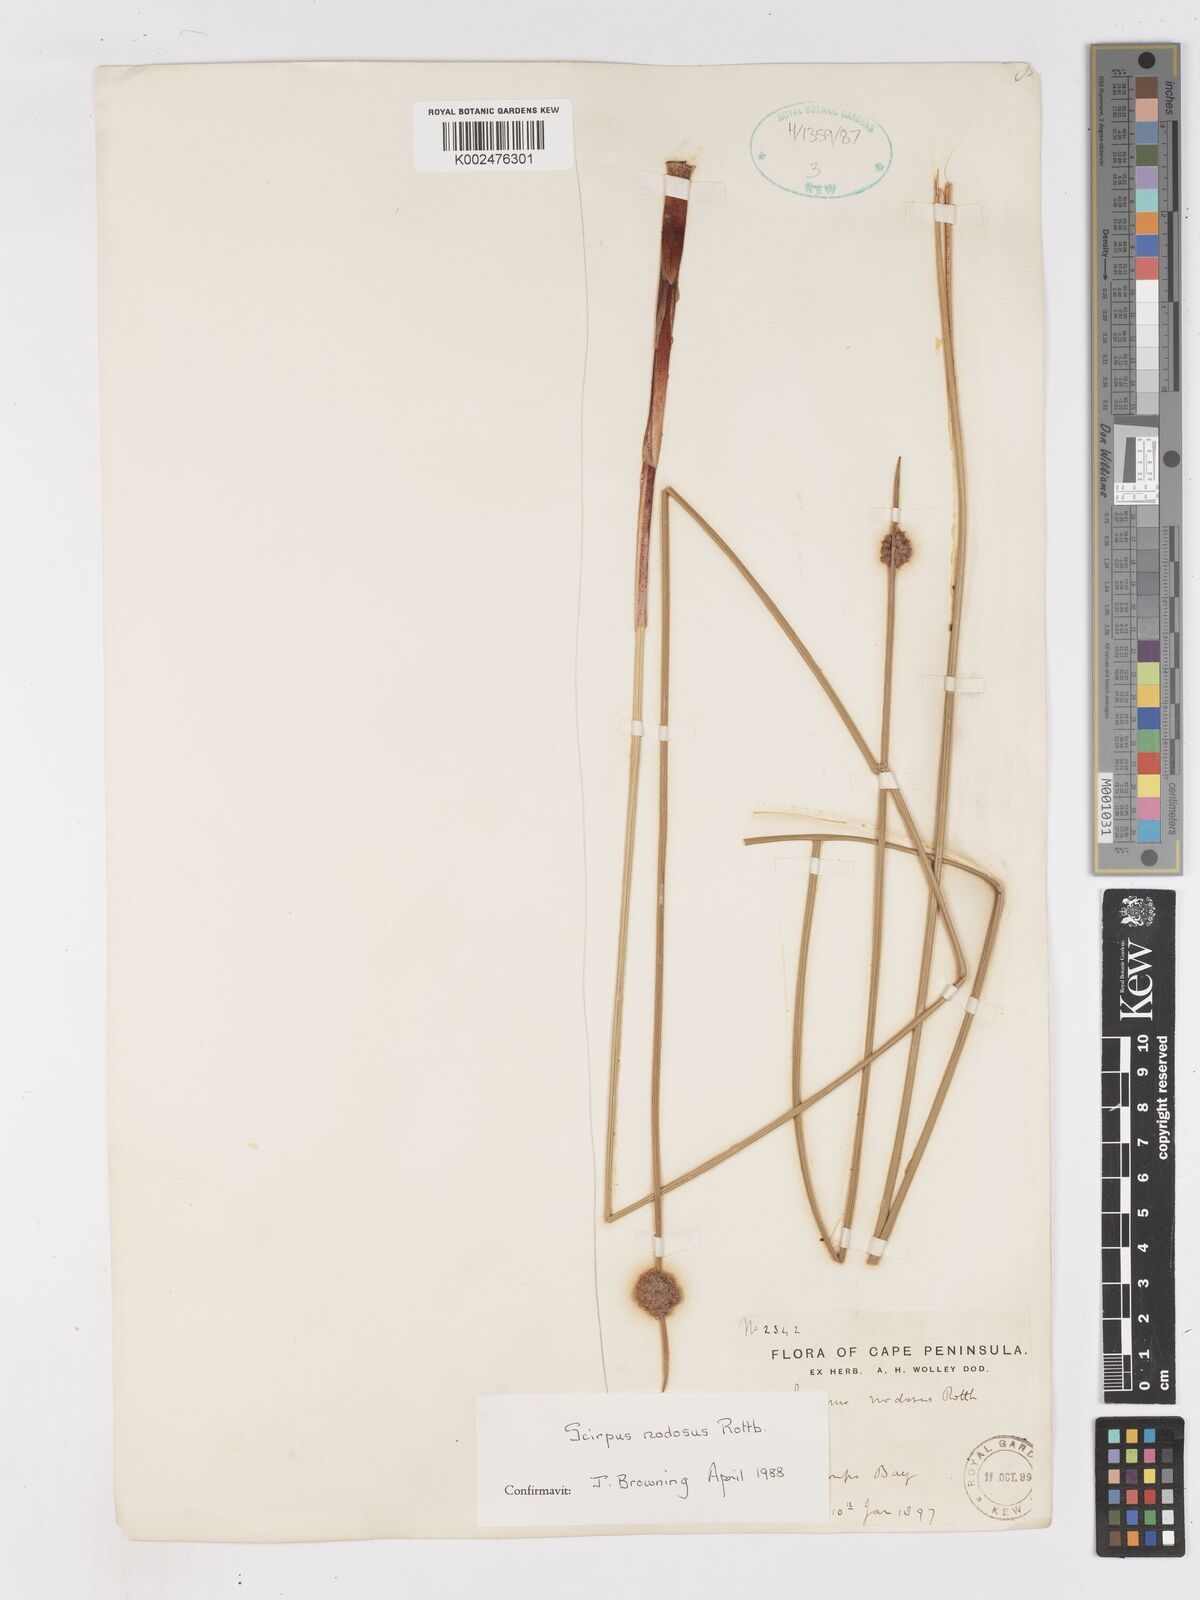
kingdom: Plantae
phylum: Tracheophyta
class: Liliopsida
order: Poales
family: Cyperaceae
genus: Ficinia
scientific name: Ficinia nodosa
